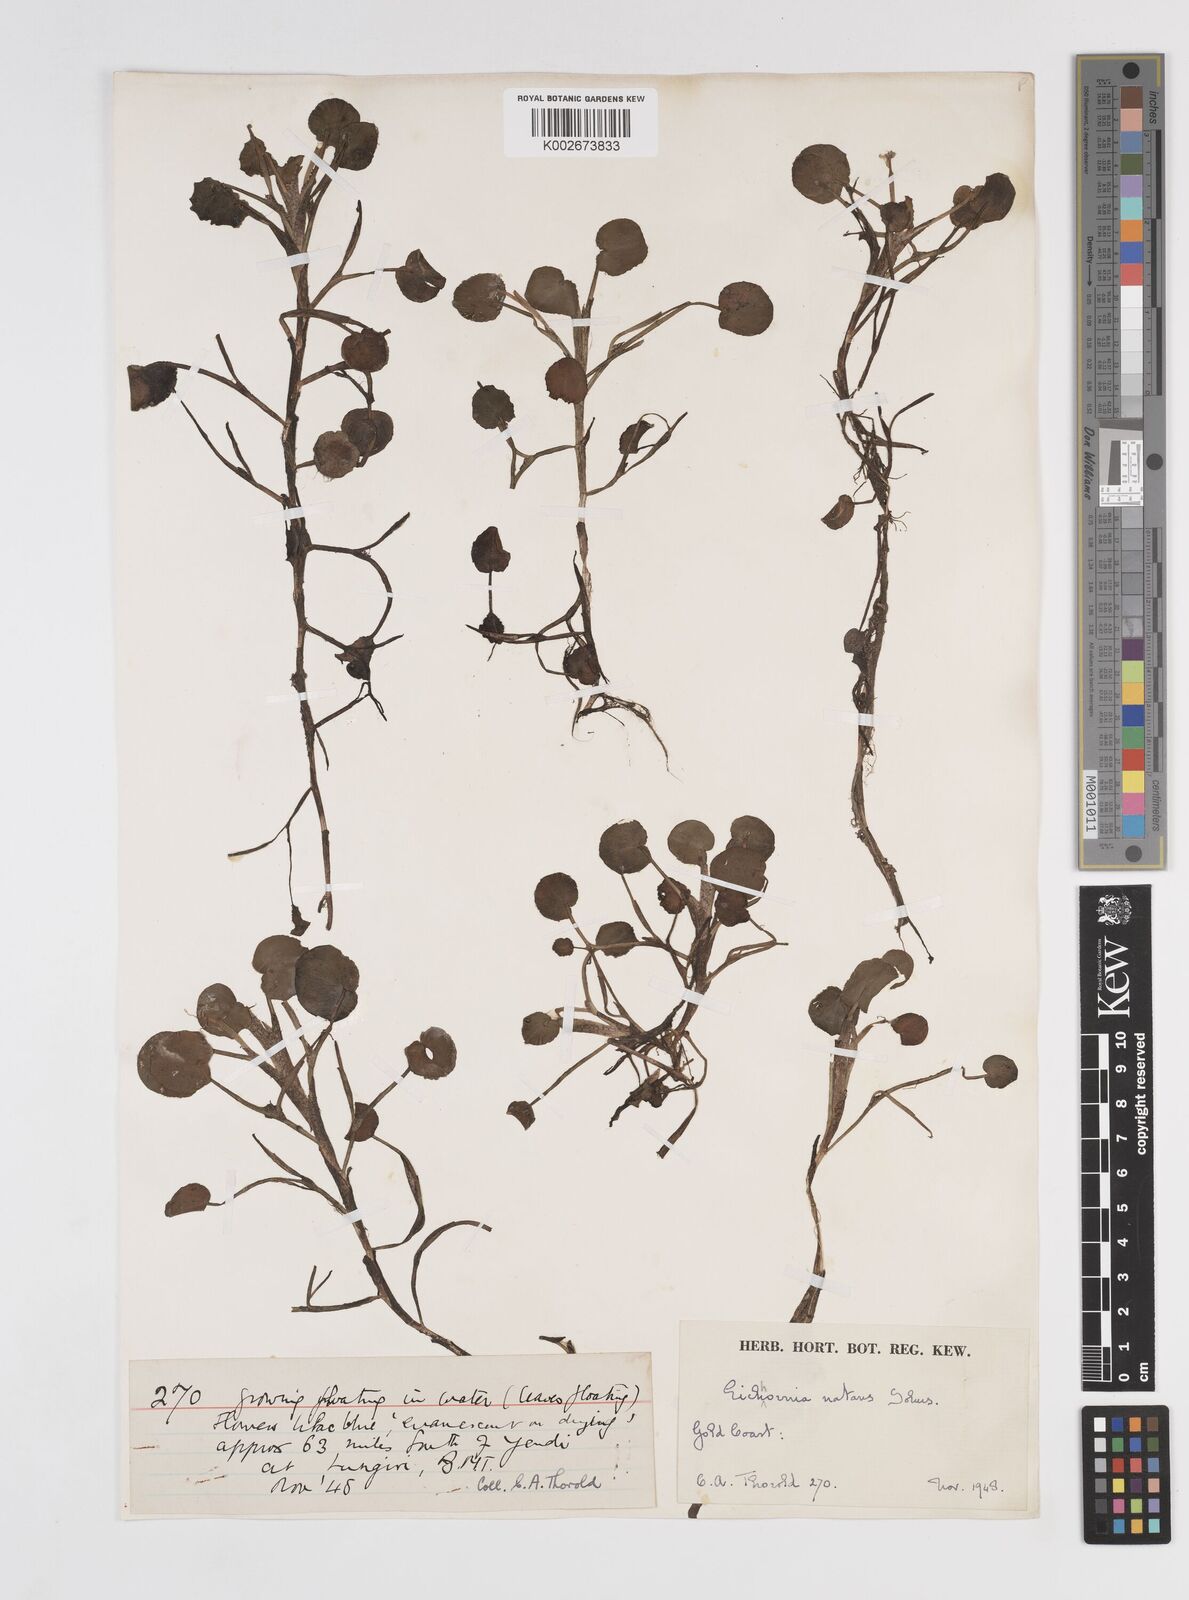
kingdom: Plantae
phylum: Tracheophyta
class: Liliopsida
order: Commelinales
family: Pontederiaceae
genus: Pontederia
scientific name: Pontederia diversifolia
